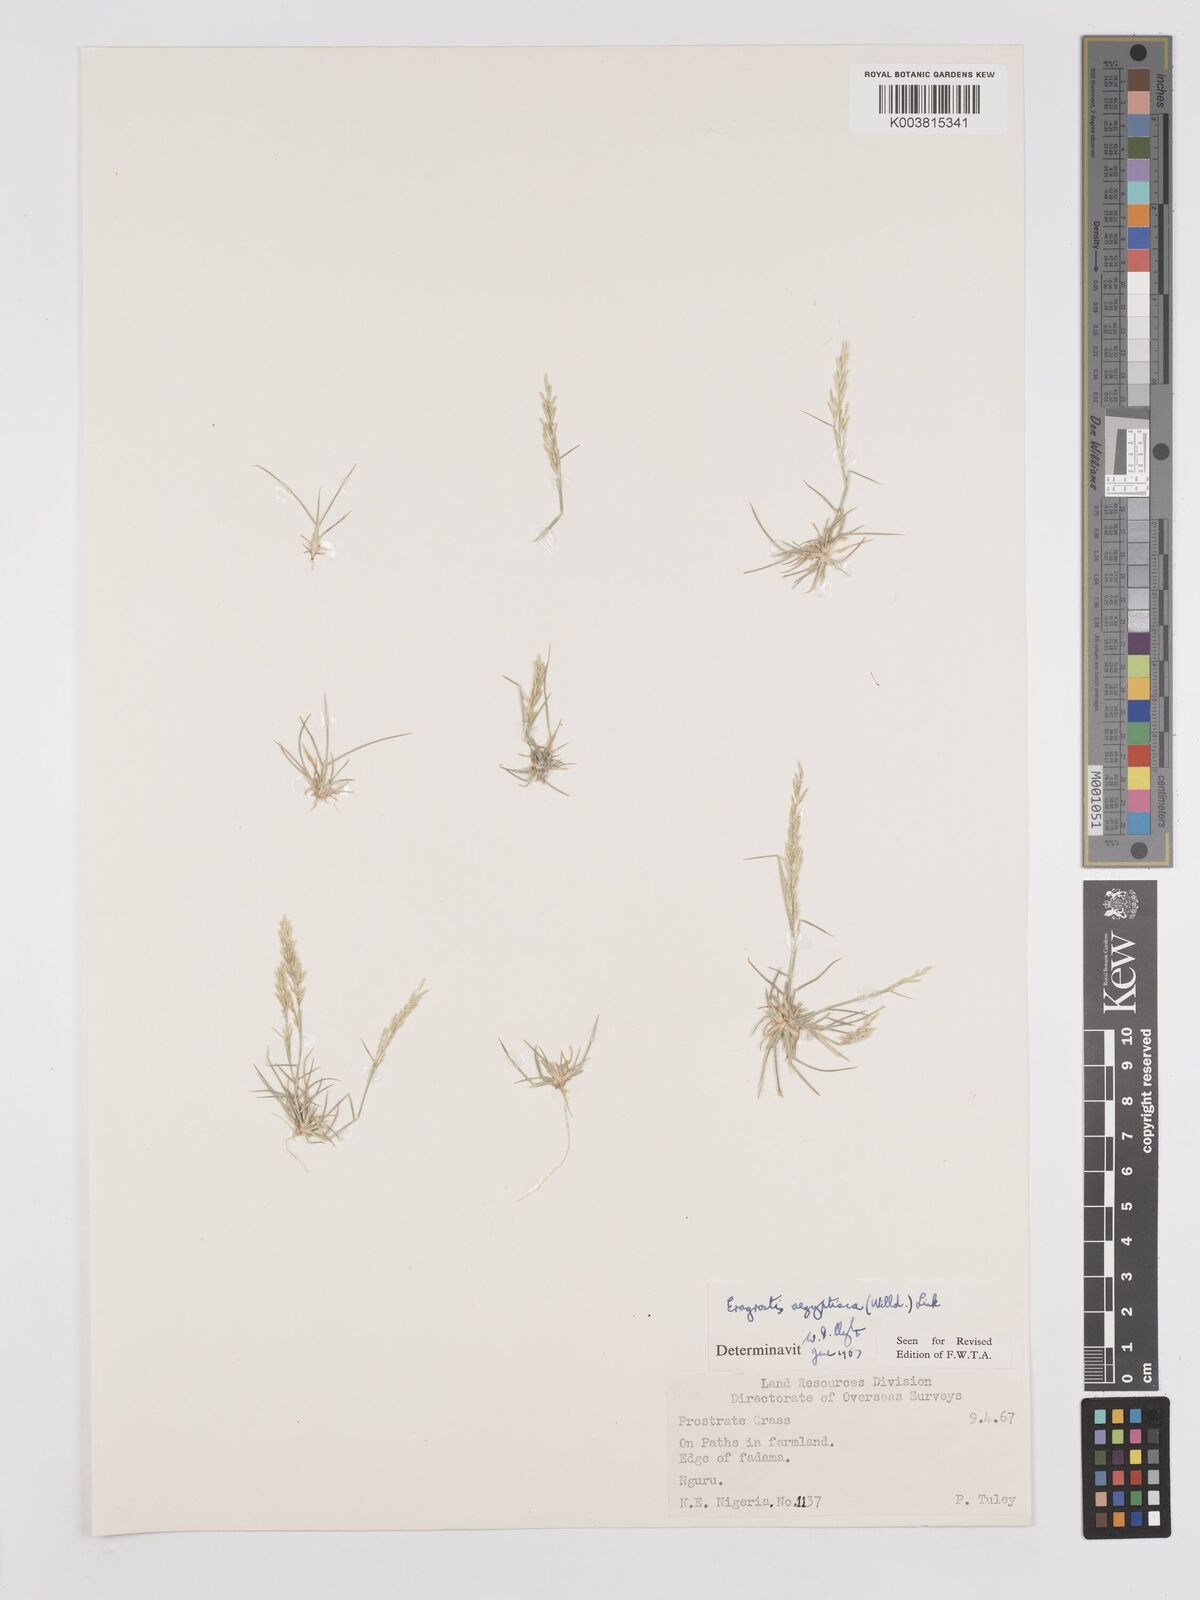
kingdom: Plantae
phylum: Tracheophyta
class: Liliopsida
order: Poales
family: Poaceae
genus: Eragrostis
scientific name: Eragrostis aegyptiaca
